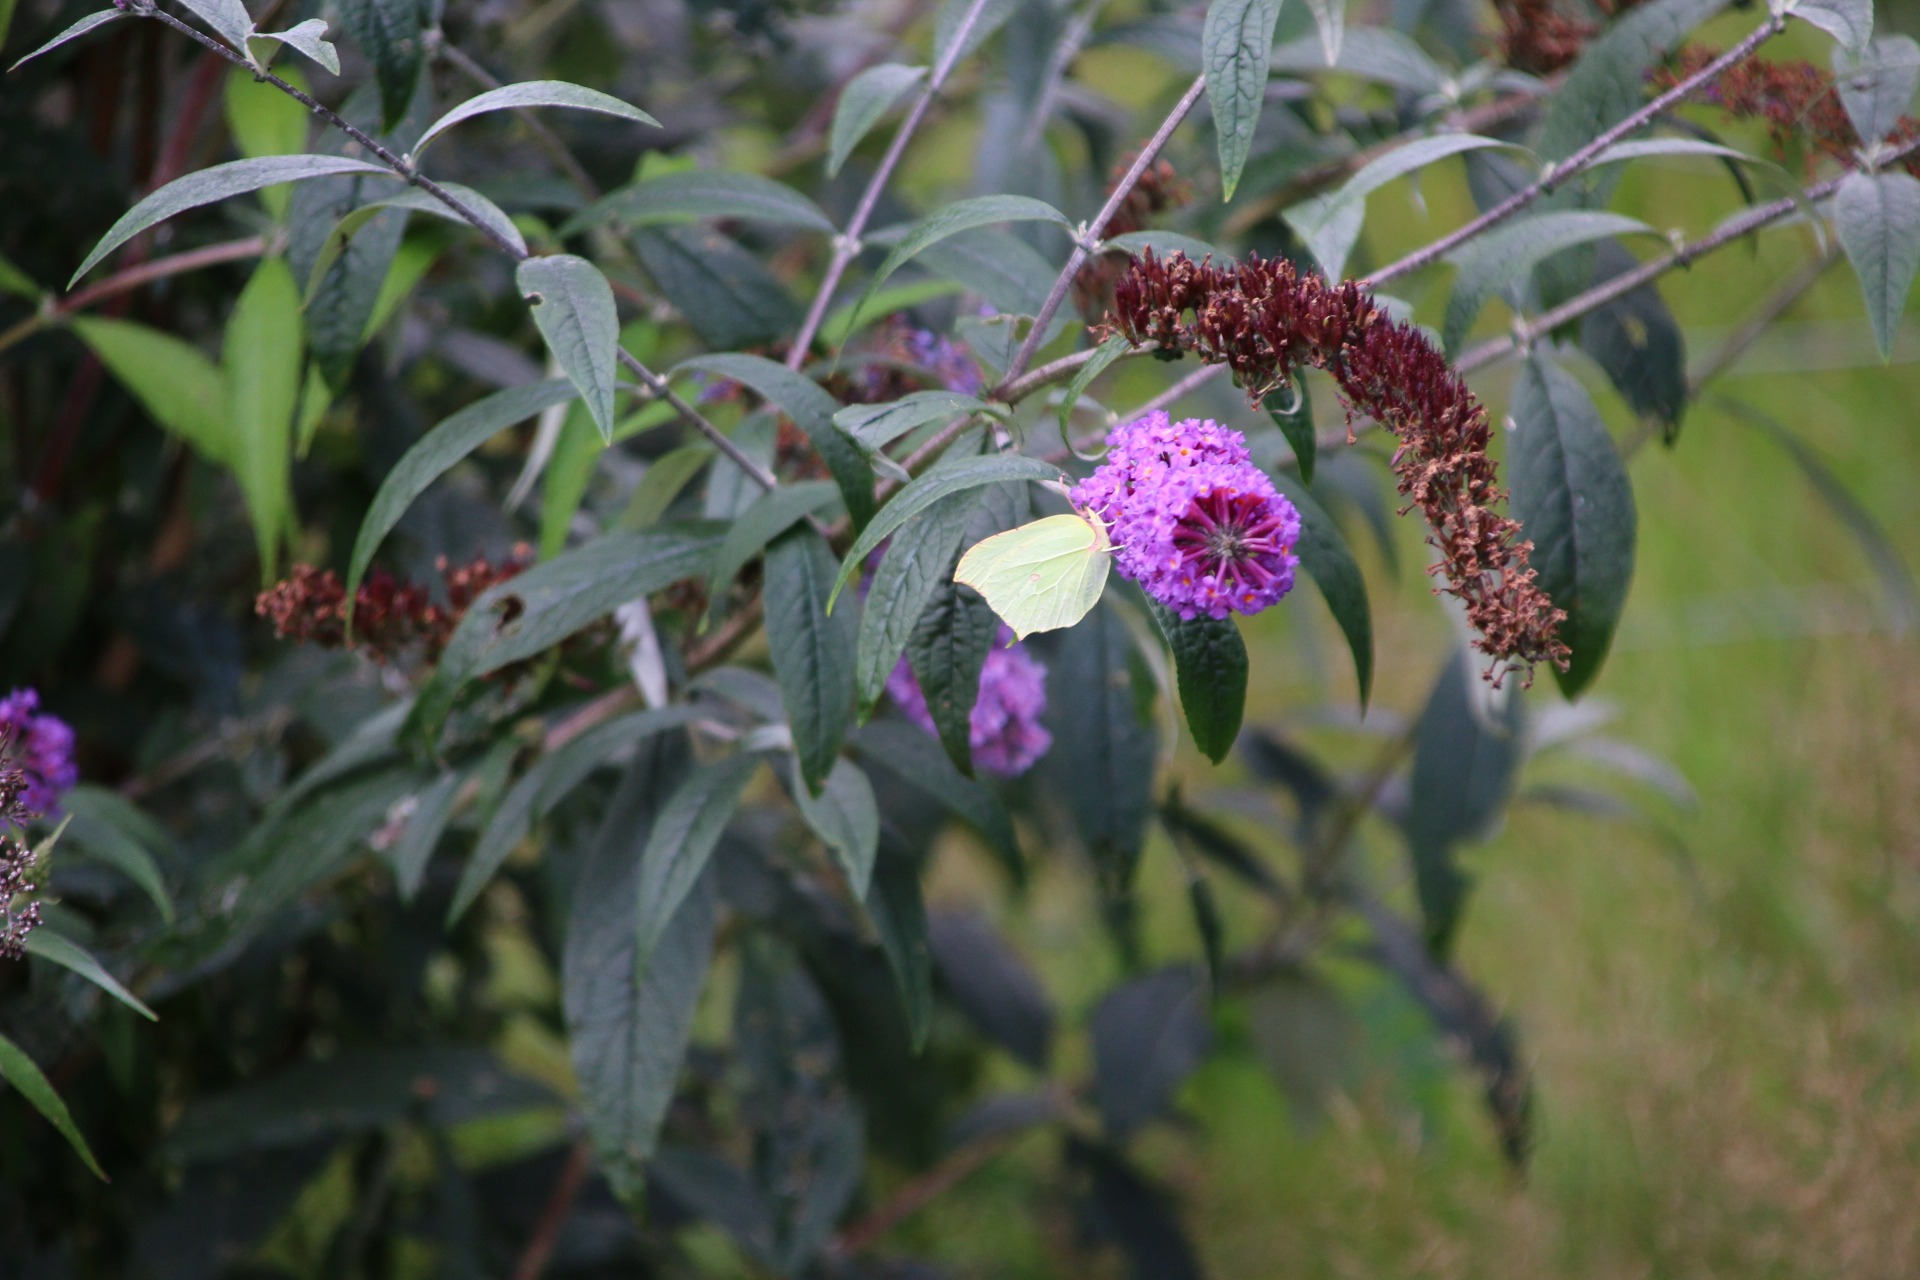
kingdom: Animalia
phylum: Arthropoda
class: Insecta
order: Lepidoptera
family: Pieridae
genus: Gonepteryx
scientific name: Gonepteryx rhamni
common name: Citronsommerfugl
